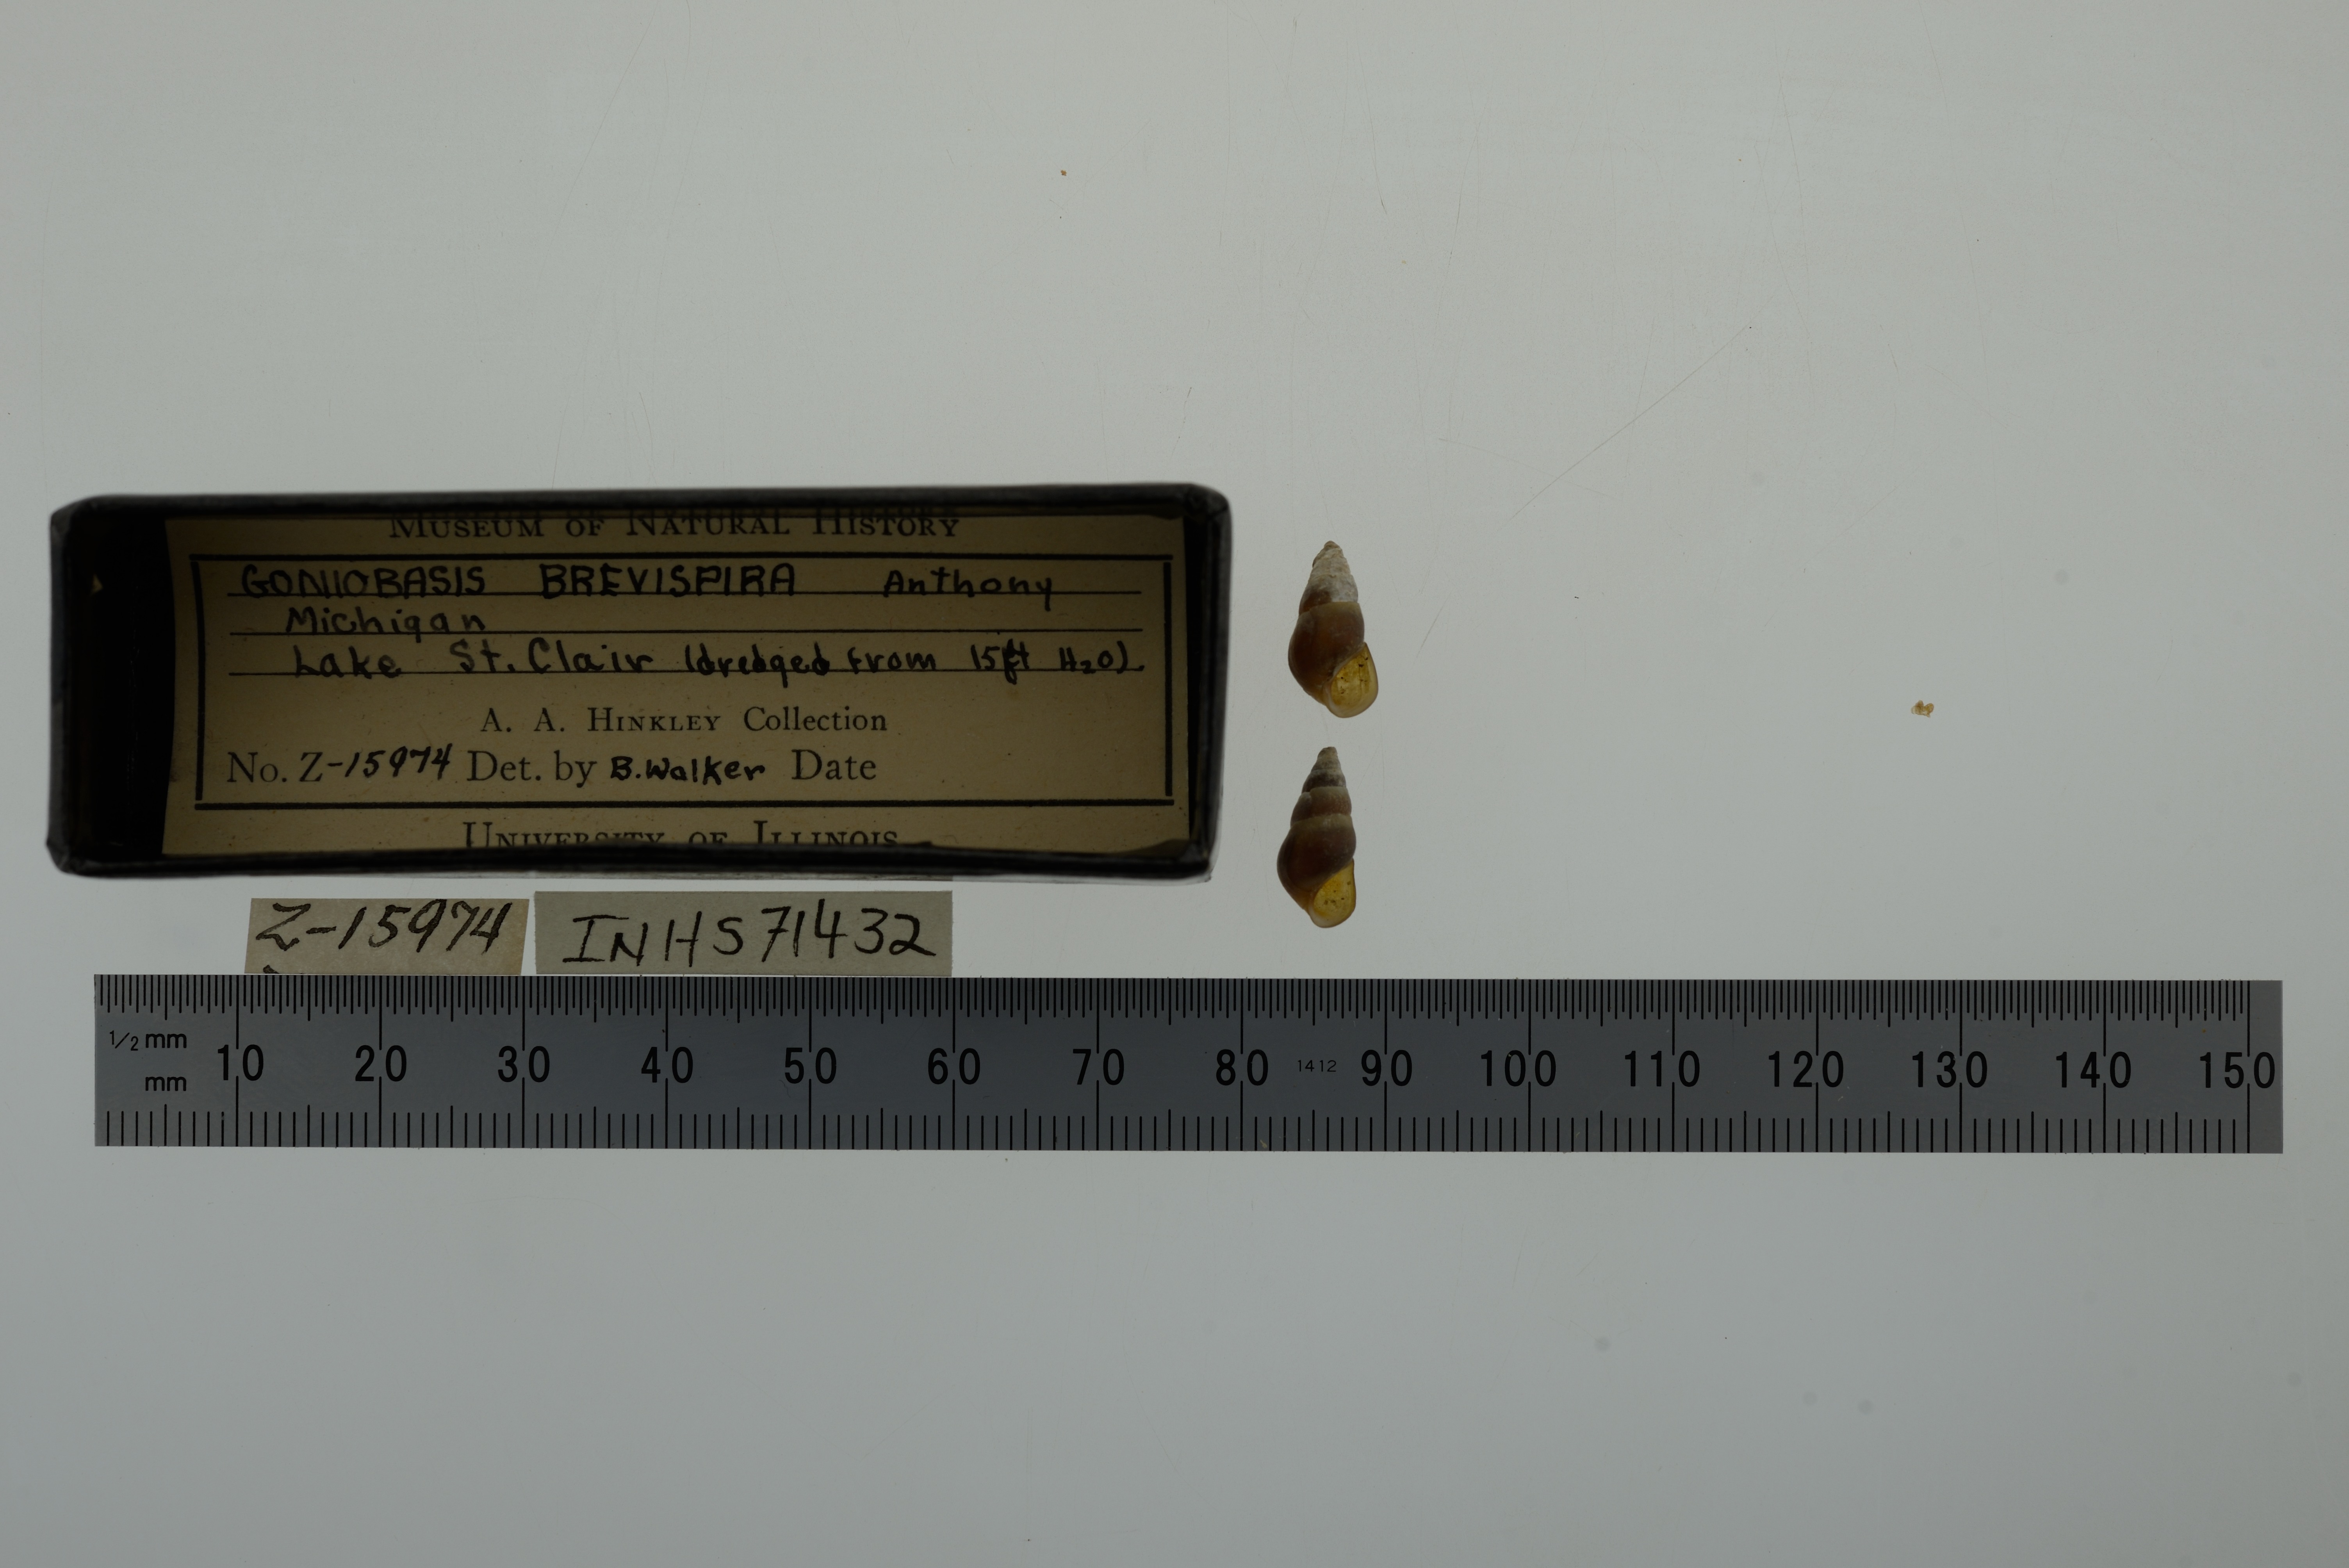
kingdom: Animalia
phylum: Mollusca
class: Gastropoda
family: Pleuroceridae
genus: Elimia
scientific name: Elimia livescens
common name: Liver elimia
